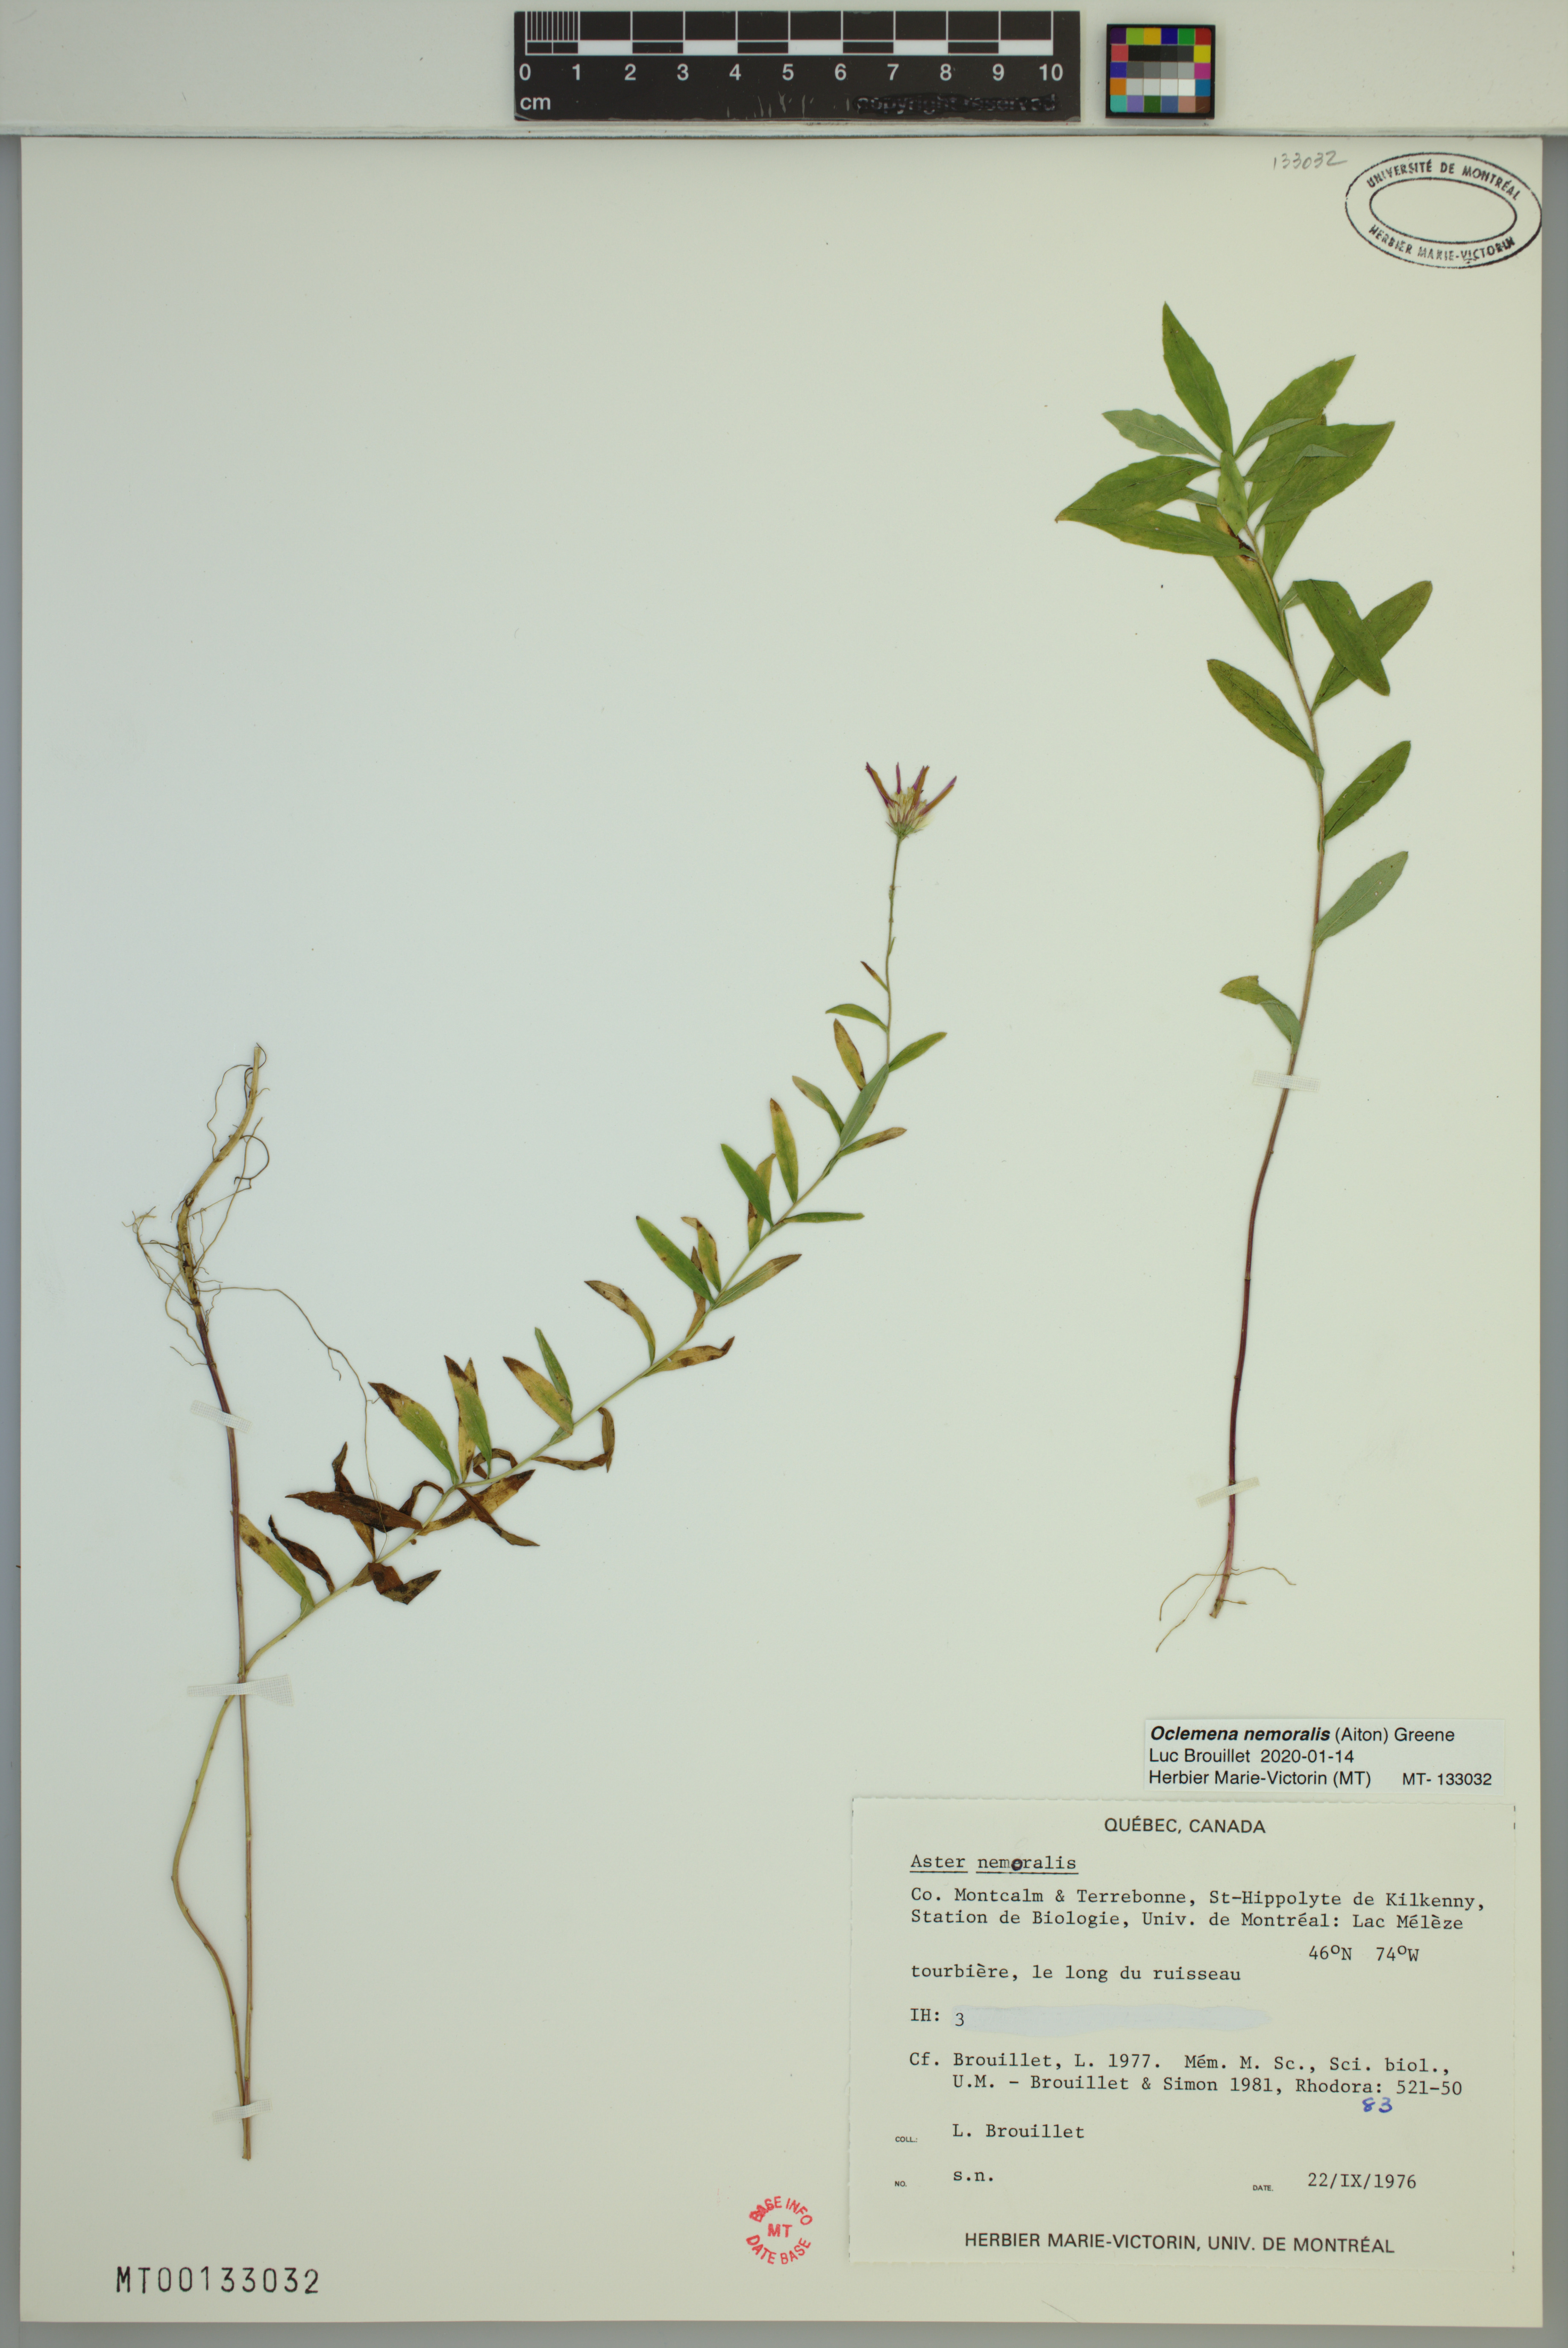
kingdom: Plantae
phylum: Tracheophyta
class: Magnoliopsida
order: Asterales
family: Asteraceae
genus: Oclemena
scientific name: Oclemena nemoralis
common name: Bog aster
